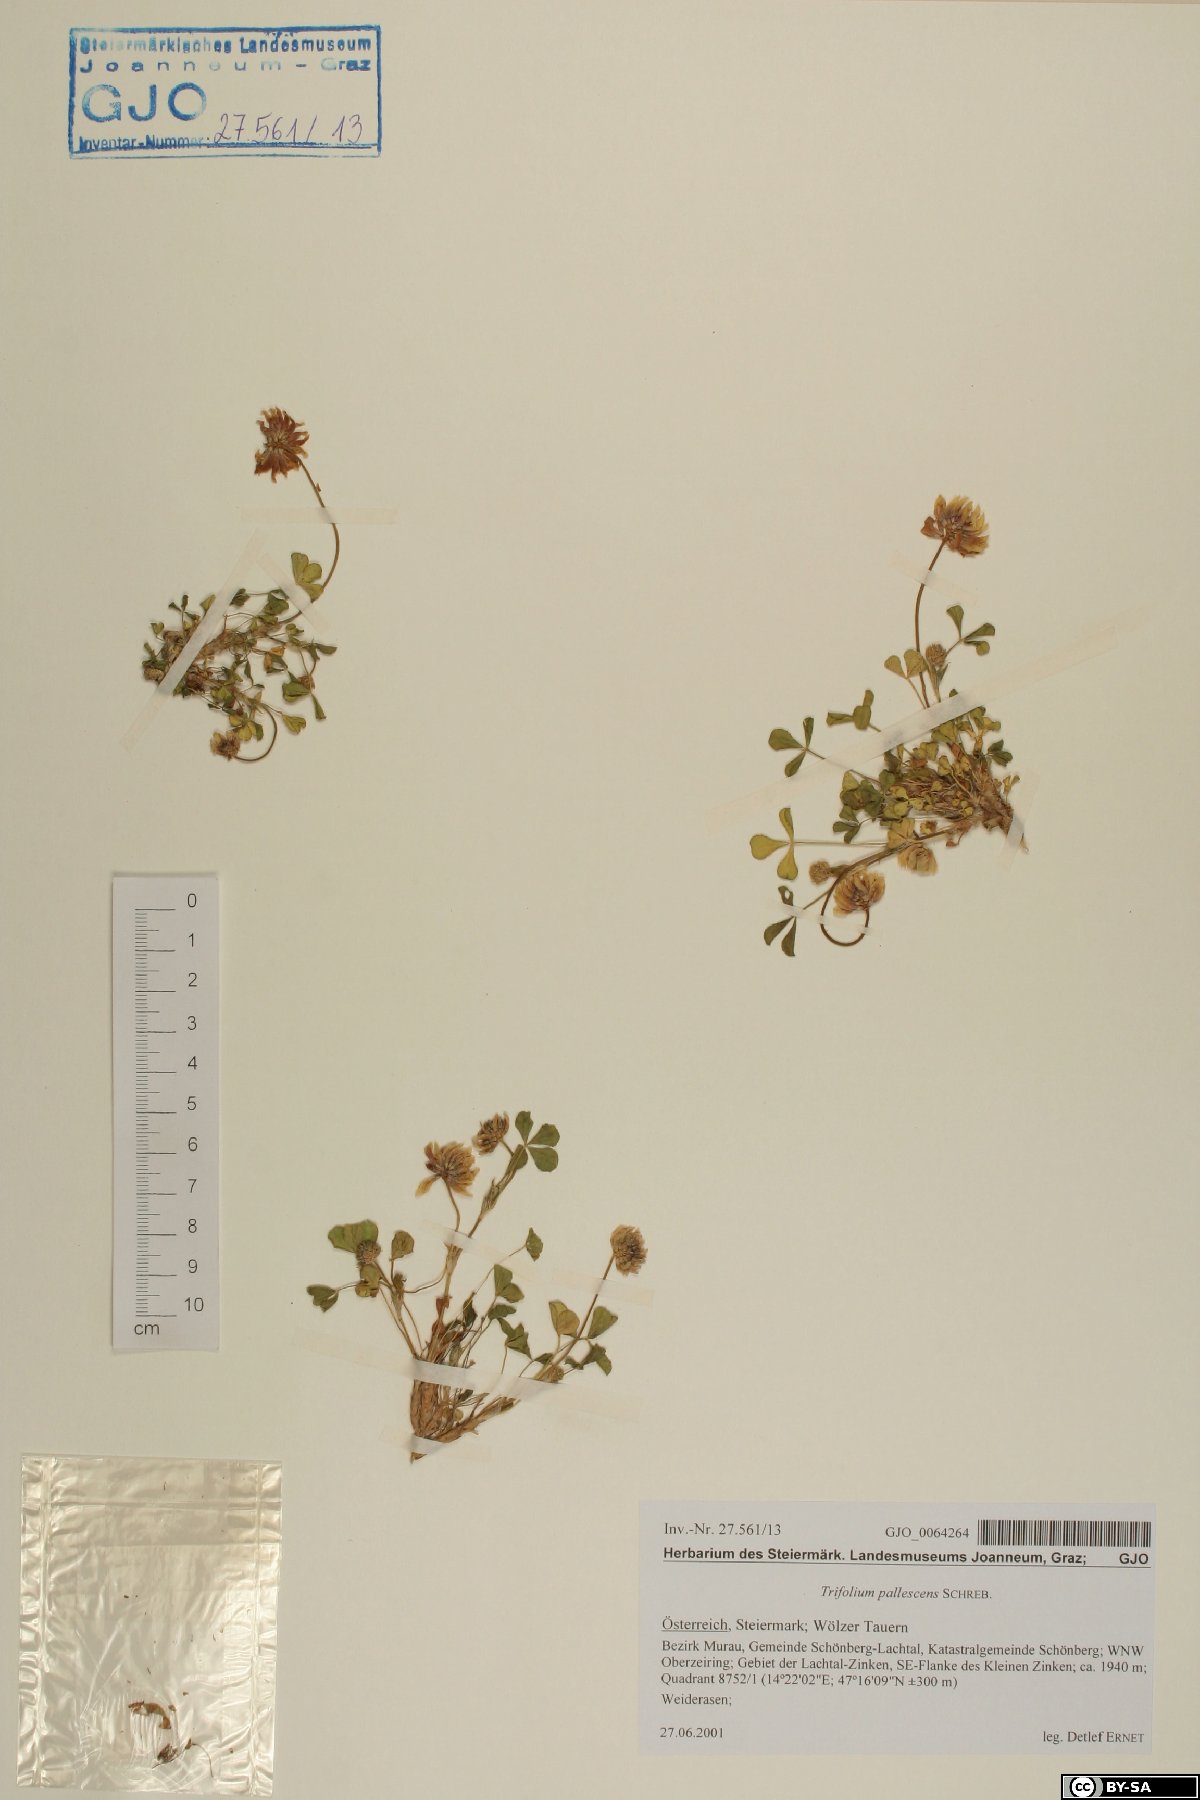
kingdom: Plantae
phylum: Tracheophyta
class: Magnoliopsida
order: Fabales
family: Fabaceae
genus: Trifolium
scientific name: Trifolium pallescens
